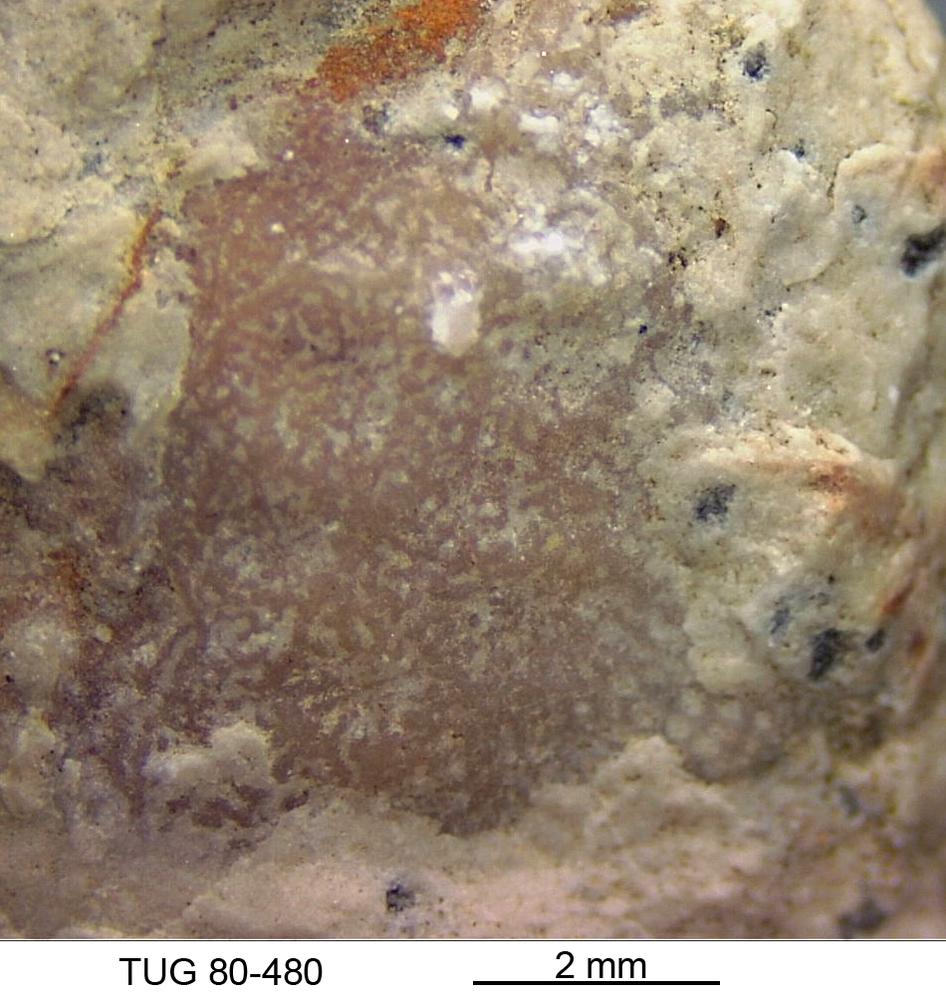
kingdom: Animalia
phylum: Bryozoa
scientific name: Bryozoa
